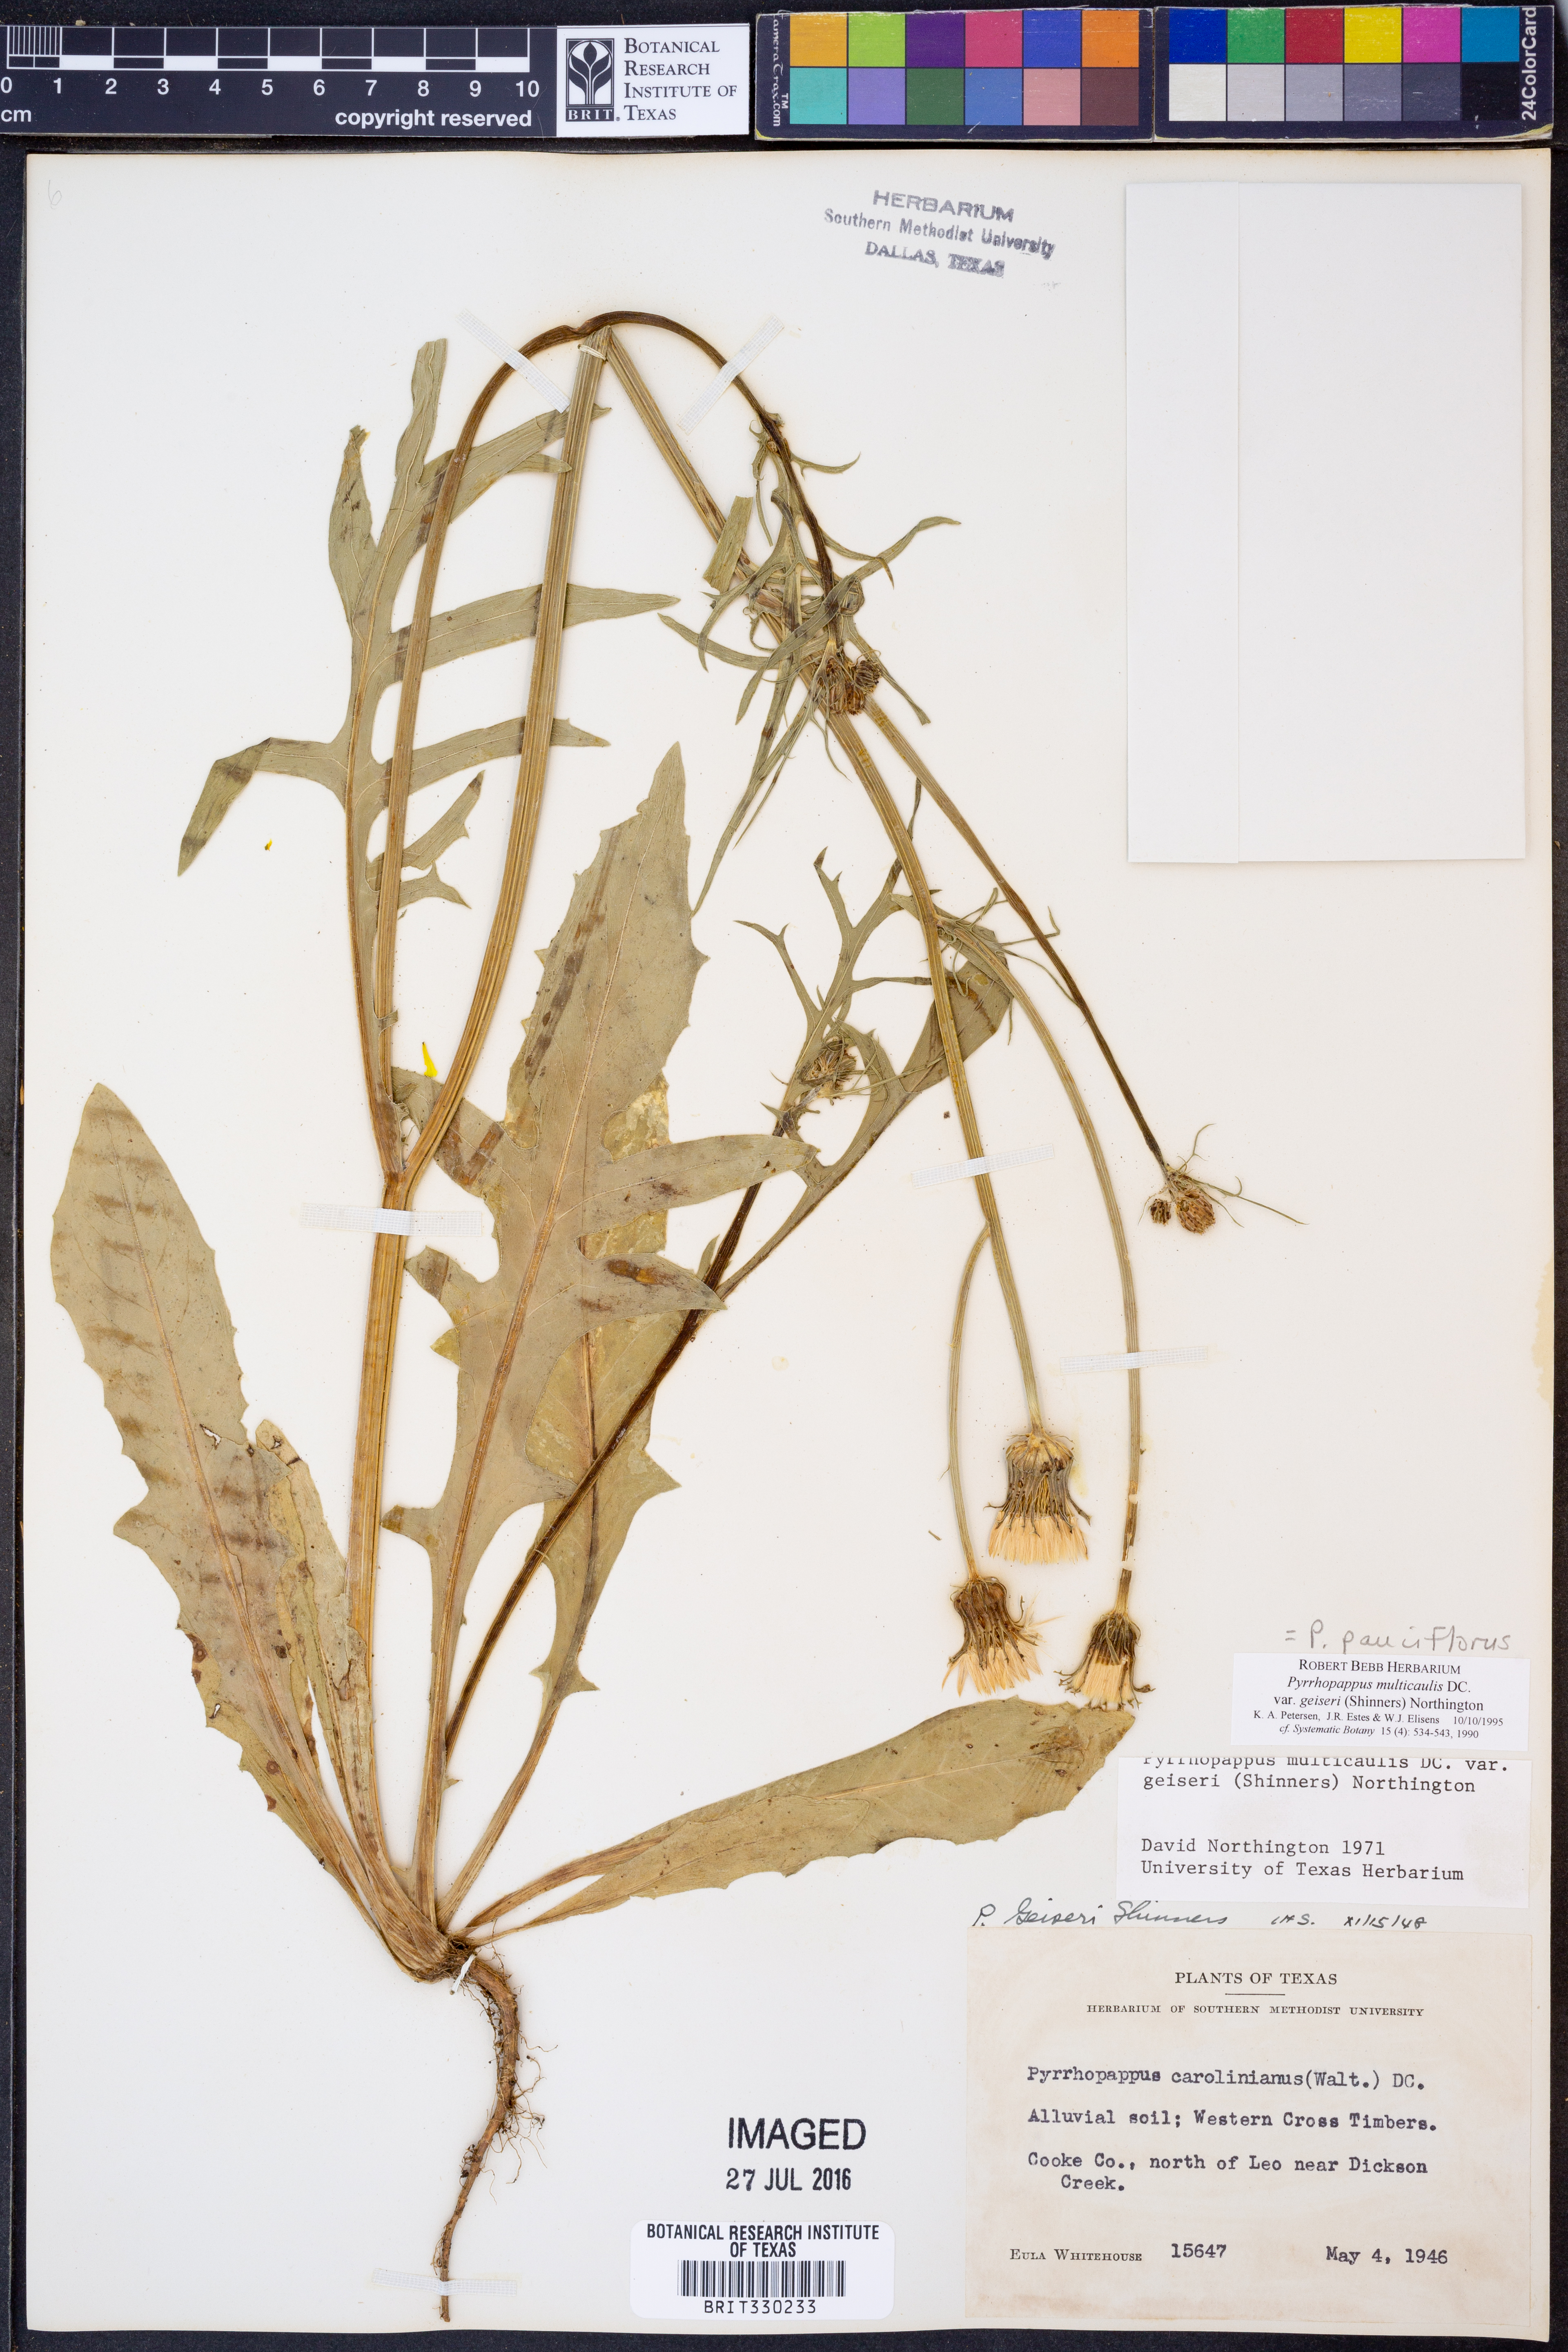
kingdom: Plantae
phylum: Tracheophyta
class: Magnoliopsida
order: Asterales
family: Asteraceae
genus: Pyrrhopappus
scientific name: Pyrrhopappus pauciflorus
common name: Texas false dandelion
